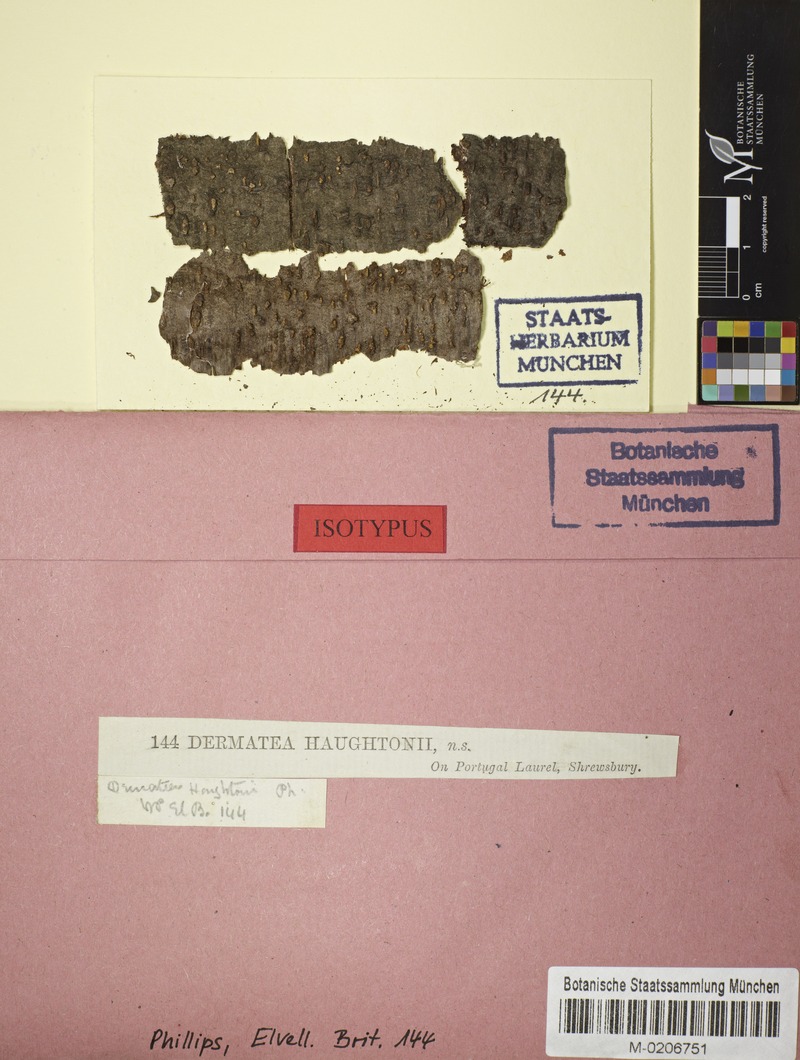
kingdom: Fungi
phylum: Ascomycota
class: Leotiomycetes
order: Helotiales
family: Dermateaceae
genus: Pezicula
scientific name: Pezicula sepium
